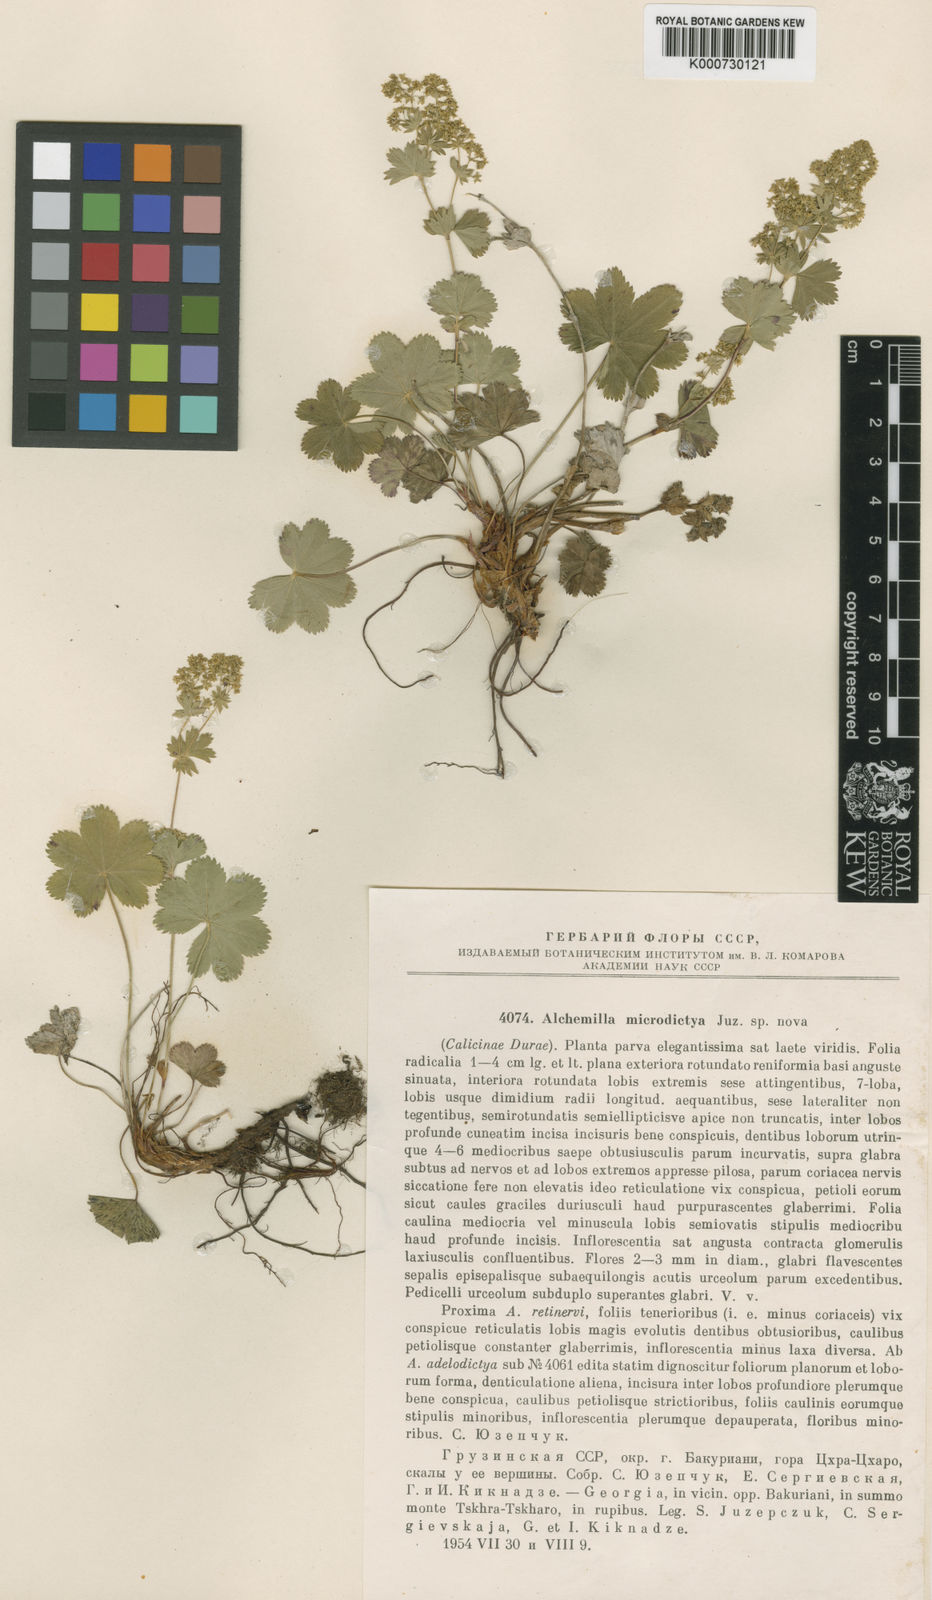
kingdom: Plantae
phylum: Tracheophyta
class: Magnoliopsida
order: Rosales
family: Rosaceae
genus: Alchemilla
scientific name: Alchemilla microdictya
